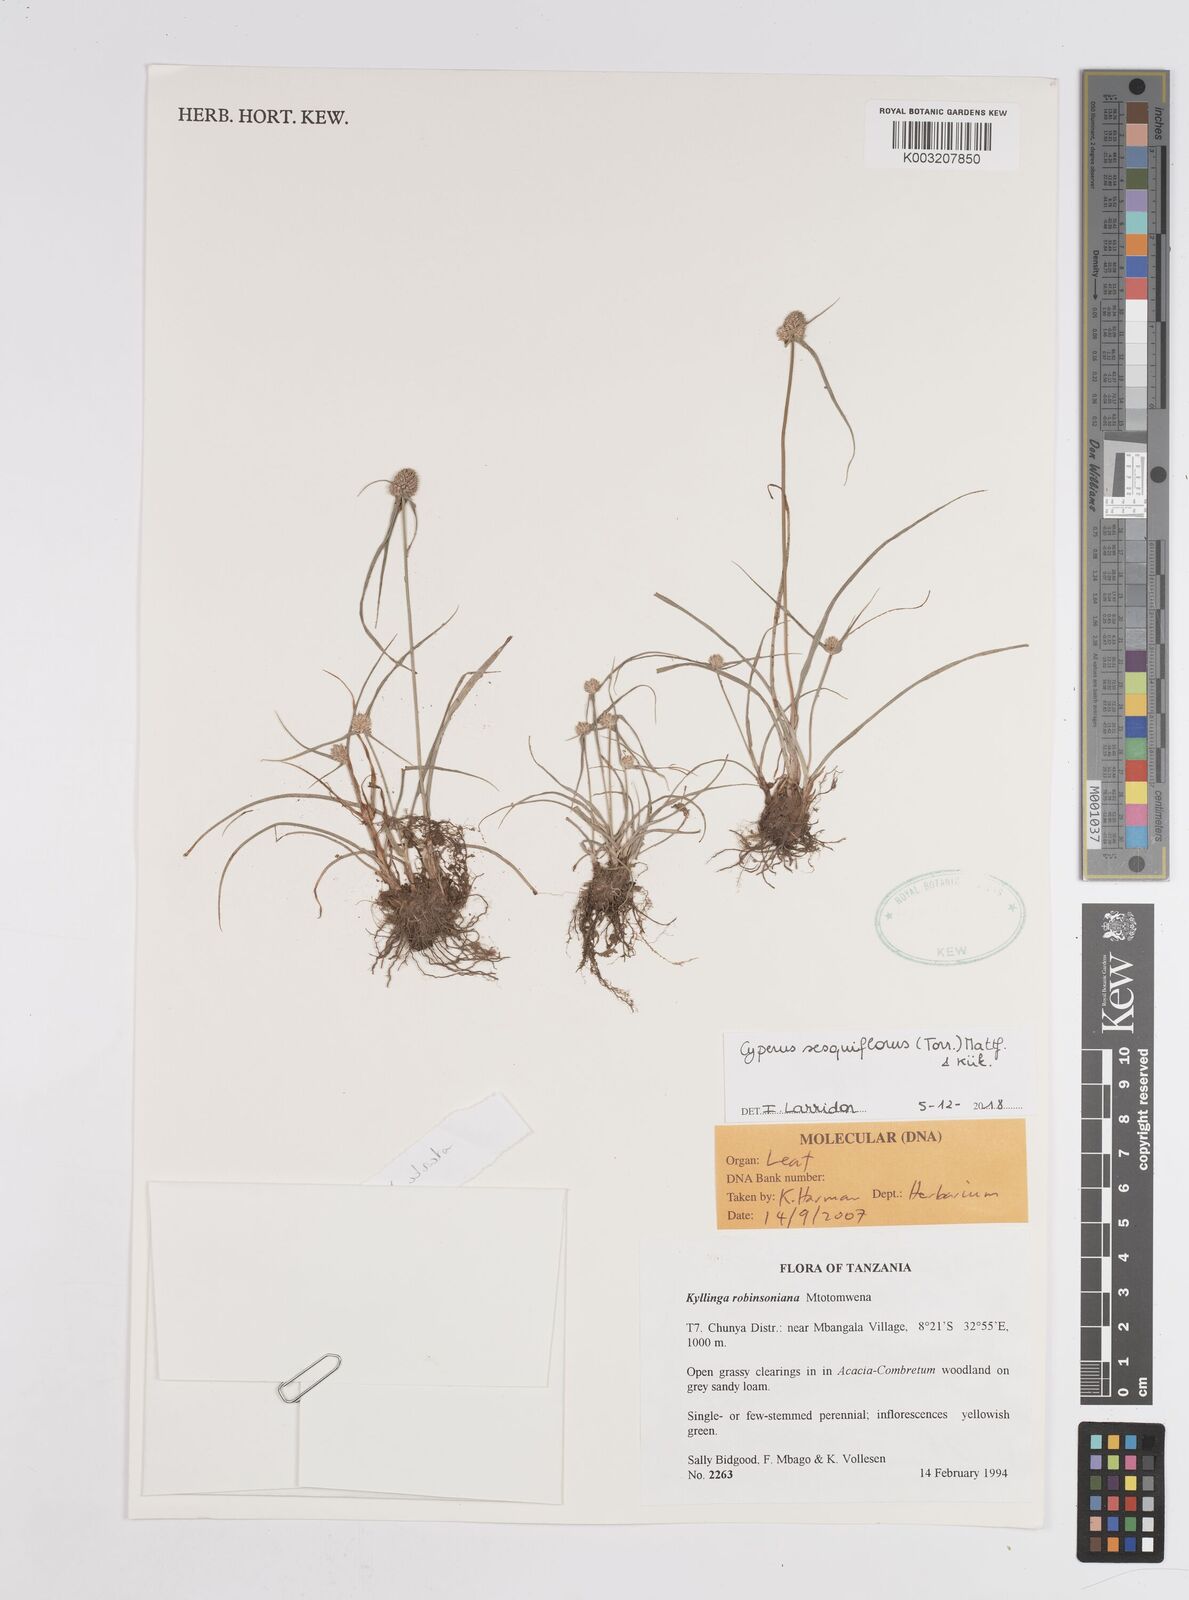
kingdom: Plantae
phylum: Tracheophyta
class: Liliopsida
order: Poales
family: Cyperaceae
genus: Cyperus
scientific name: Cyperus sesquiflorus
